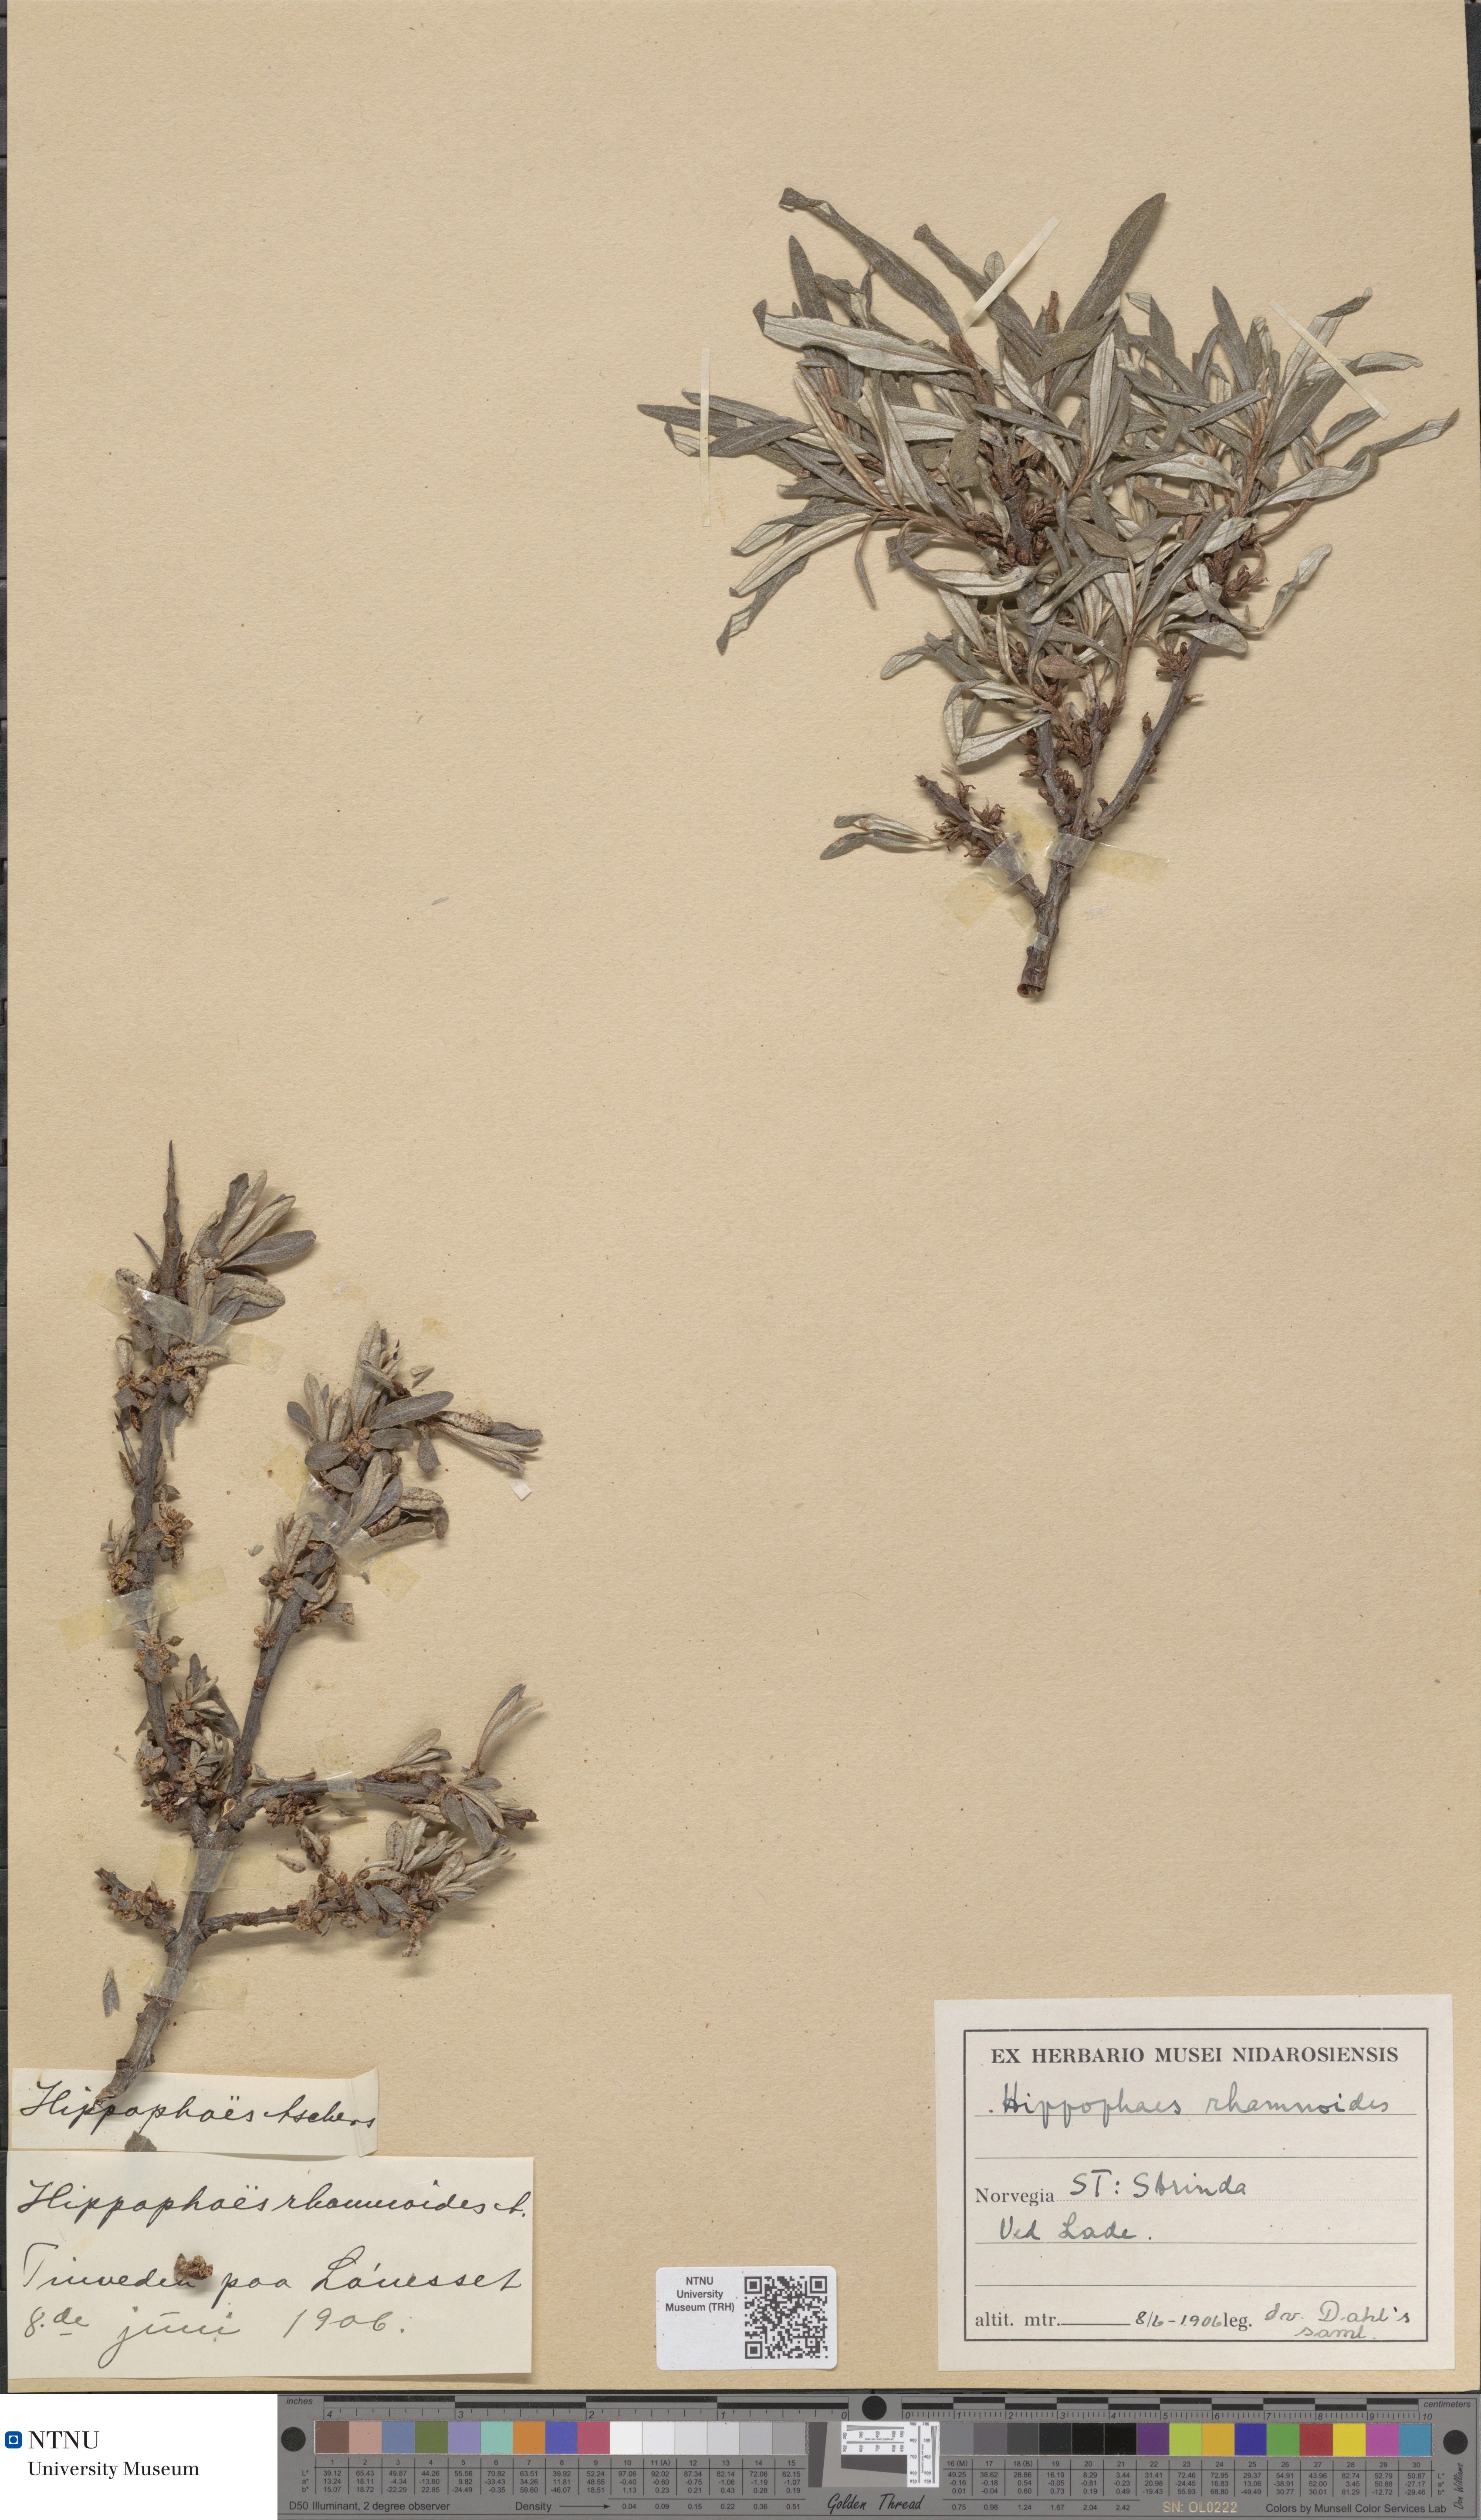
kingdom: Plantae
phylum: Tracheophyta
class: Magnoliopsida
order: Rosales
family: Elaeagnaceae
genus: Hippophae
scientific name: Hippophae rhamnoides
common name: Sea-buckthorn
